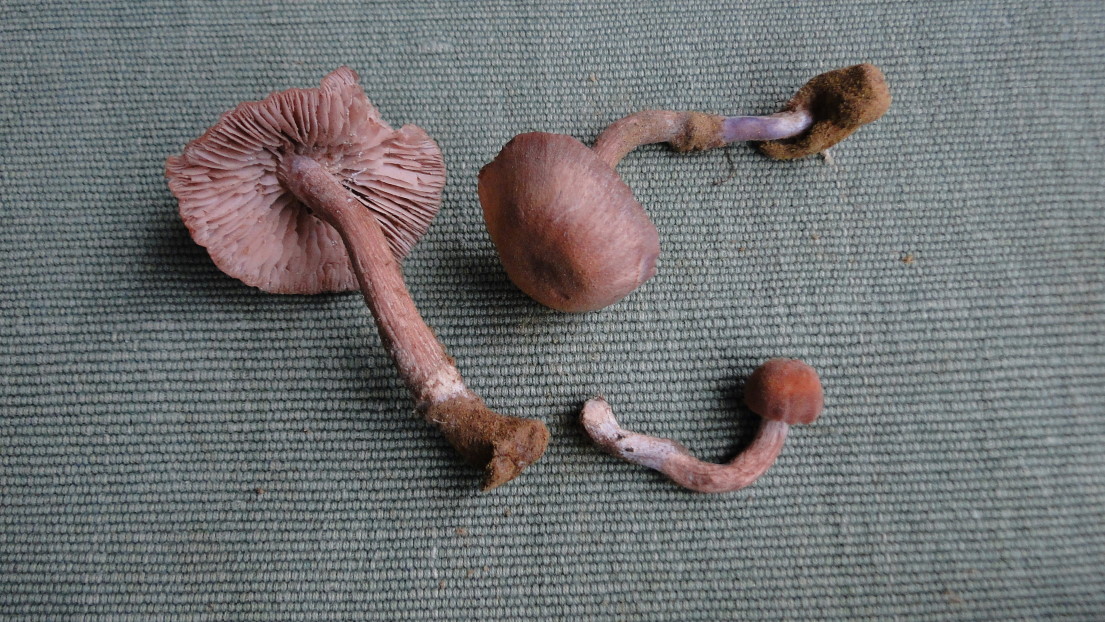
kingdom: Fungi
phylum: Basidiomycota
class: Agaricomycetes
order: Agaricales
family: Hydnangiaceae
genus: Laccaria
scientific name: Laccaria bicolor
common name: tvefarvet ametysthat
